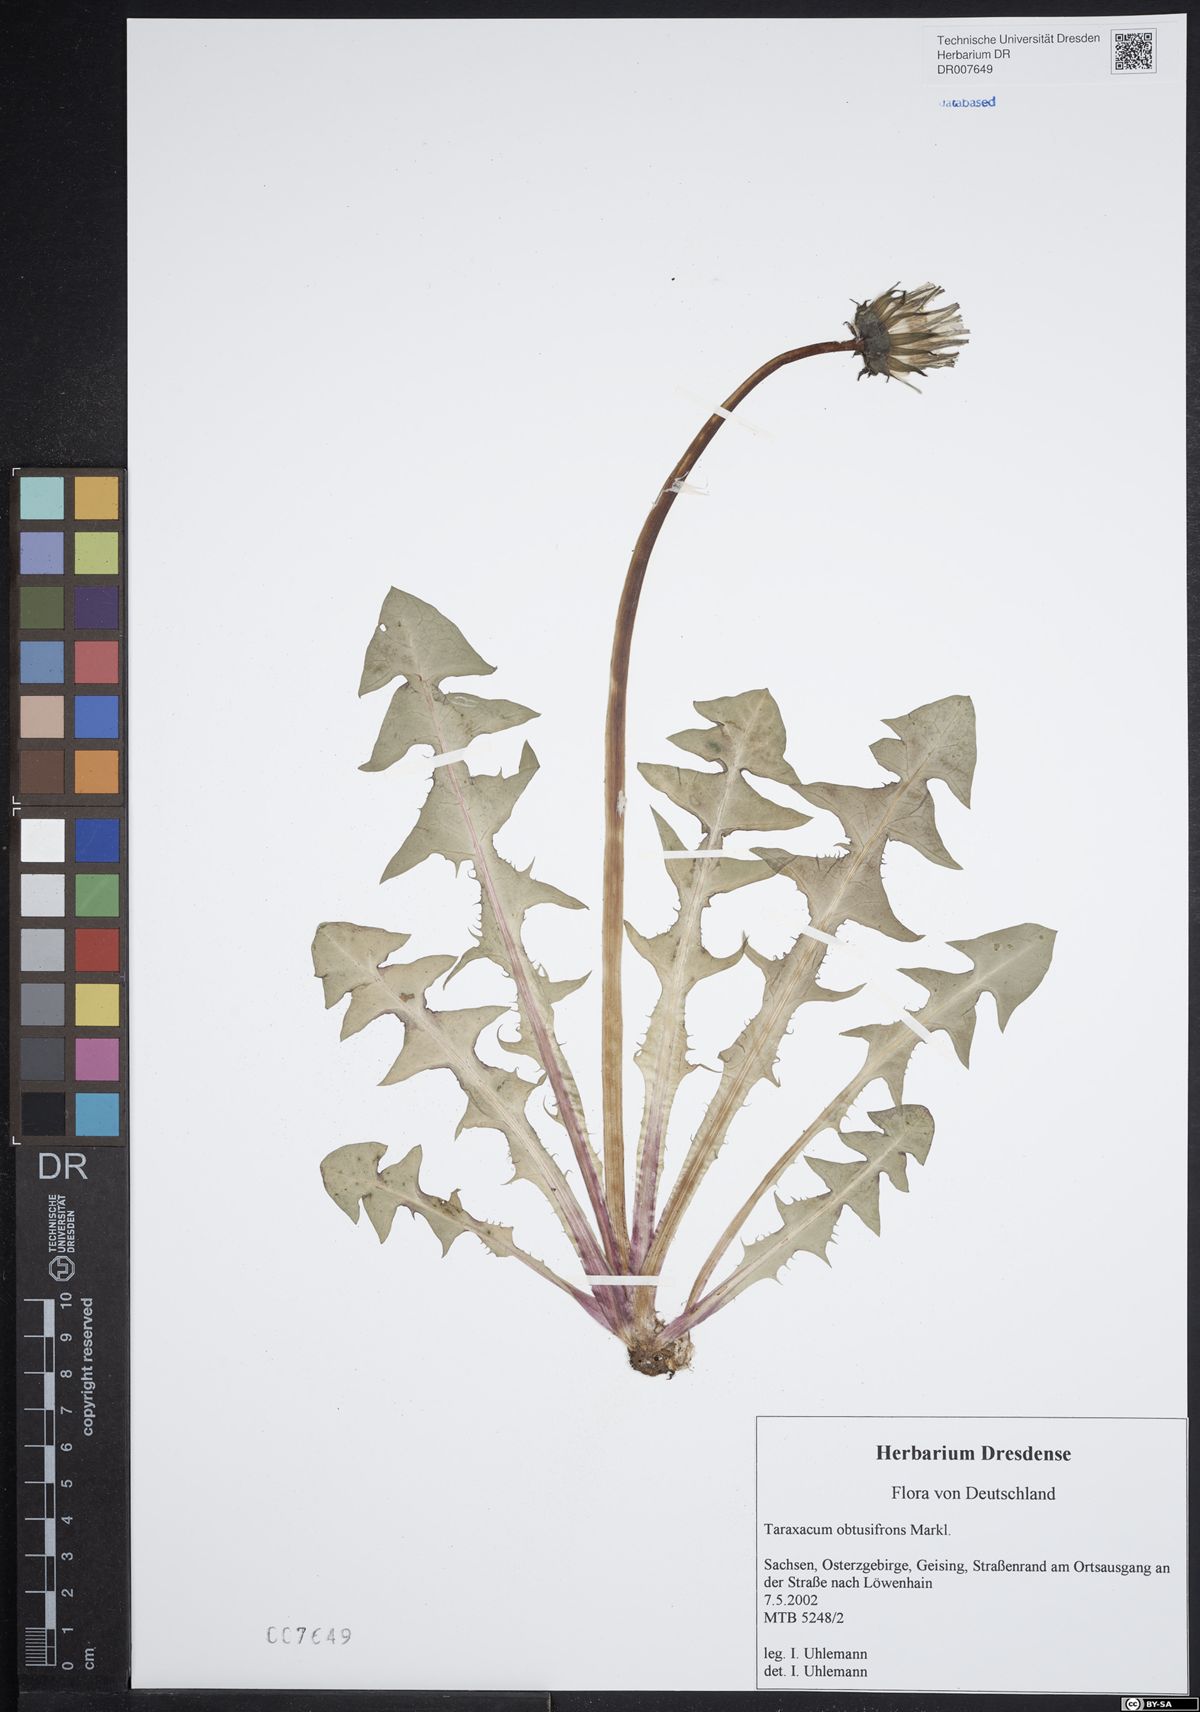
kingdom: Plantae
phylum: Tracheophyta
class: Magnoliopsida
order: Asterales
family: Asteraceae
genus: Taraxacum
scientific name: Taraxacum obtusifrons
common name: Obtuse-leaved dandelion
